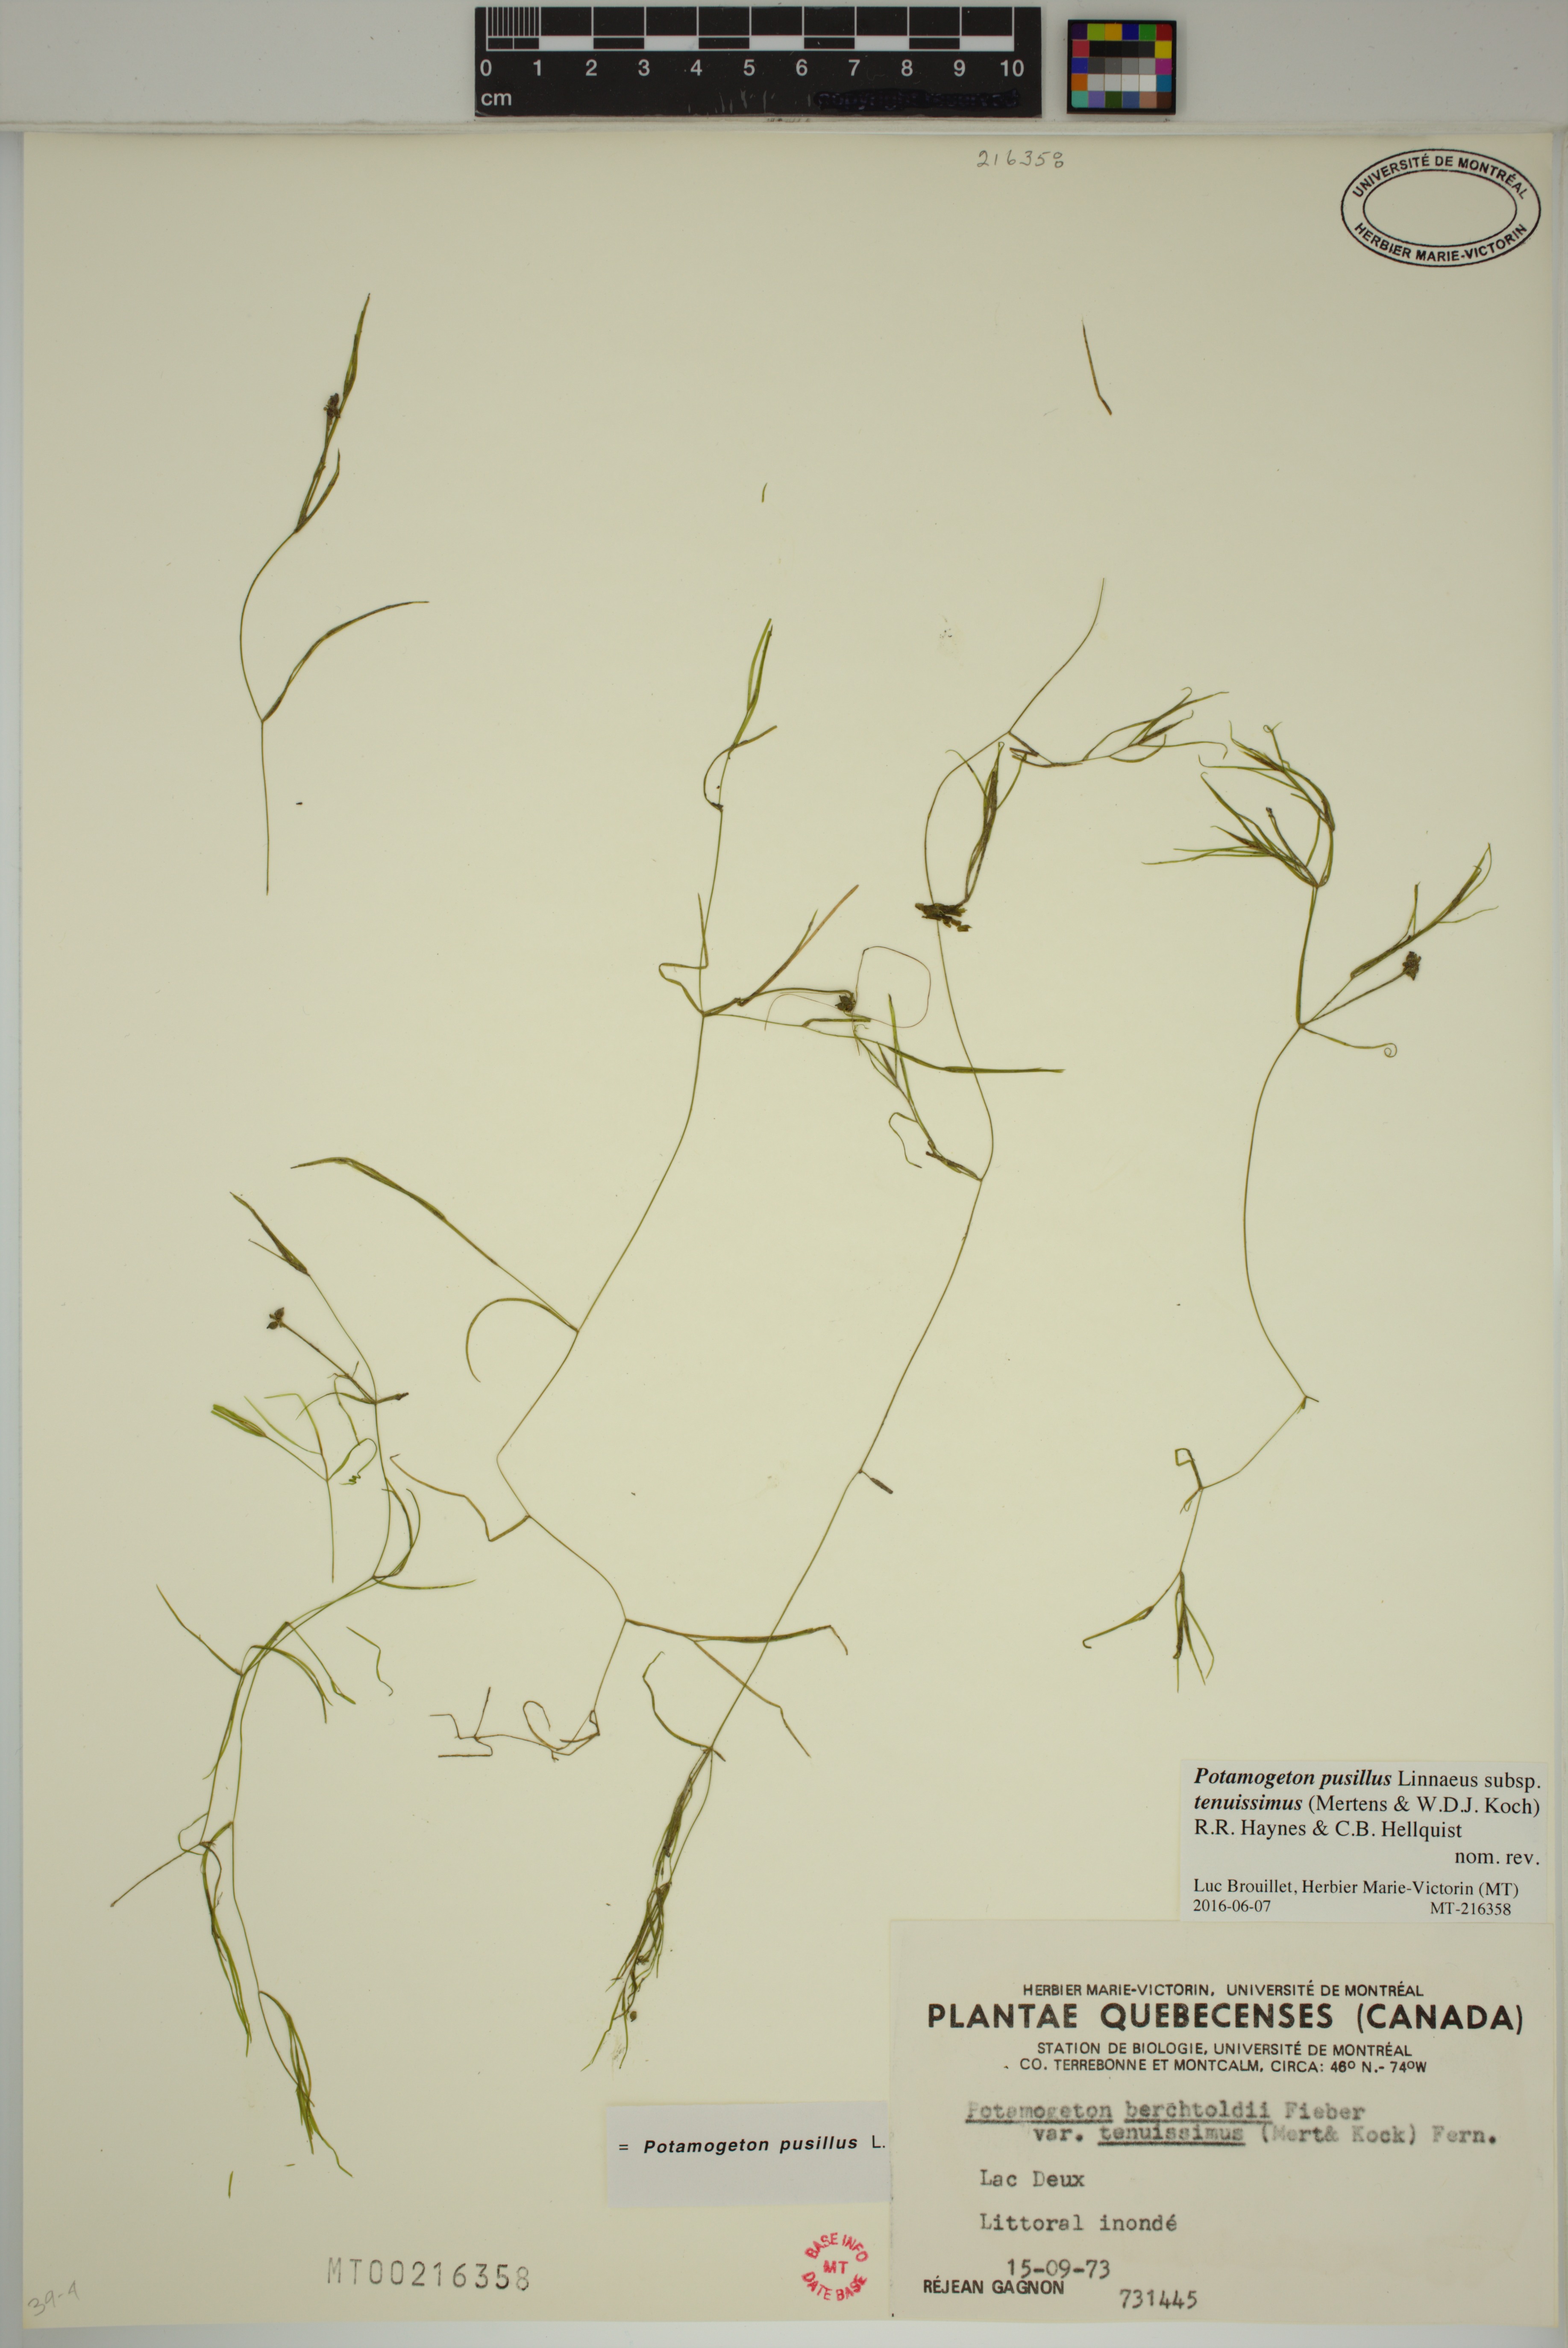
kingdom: Plantae
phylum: Tracheophyta
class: Liliopsida
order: Alismatales
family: Potamogetonaceae
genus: Potamogeton
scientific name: Potamogeton berchtoldii
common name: Small pondweed
